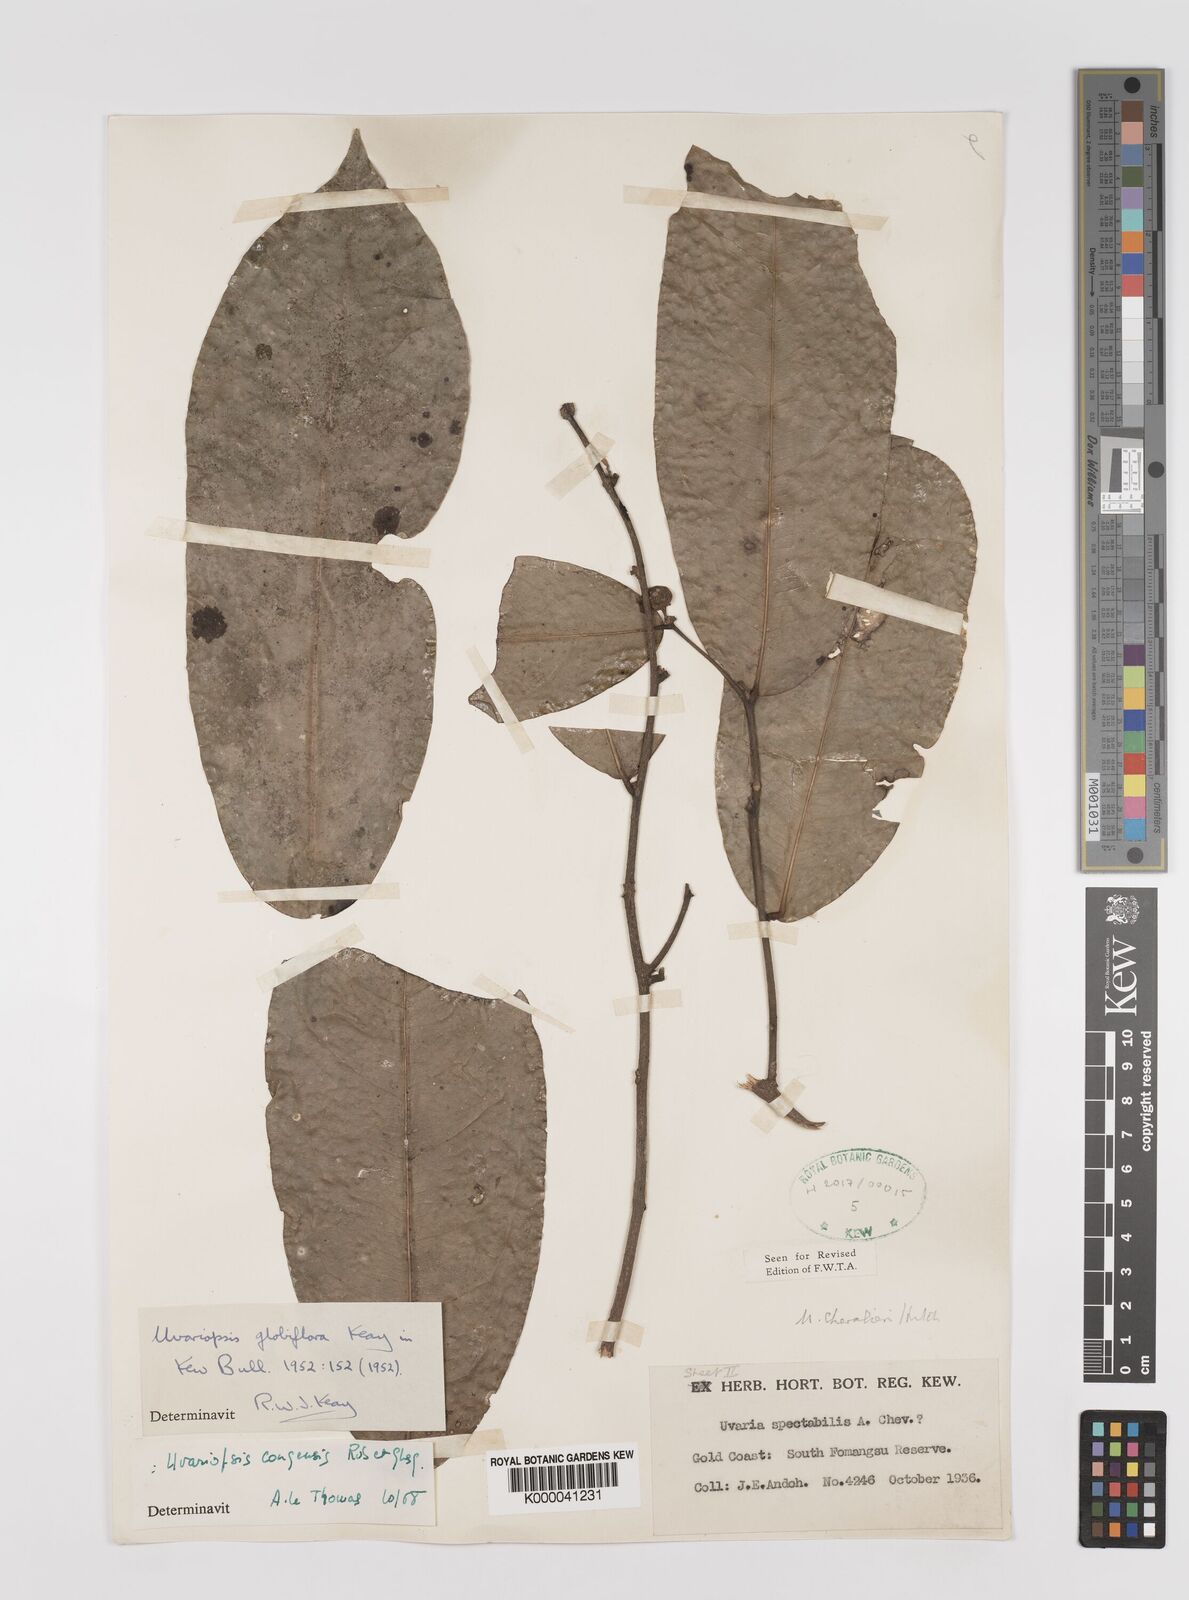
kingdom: Plantae
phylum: Tracheophyta
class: Magnoliopsida
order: Magnoliales
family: Annonaceae
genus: Uvaria
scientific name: Uvaria
